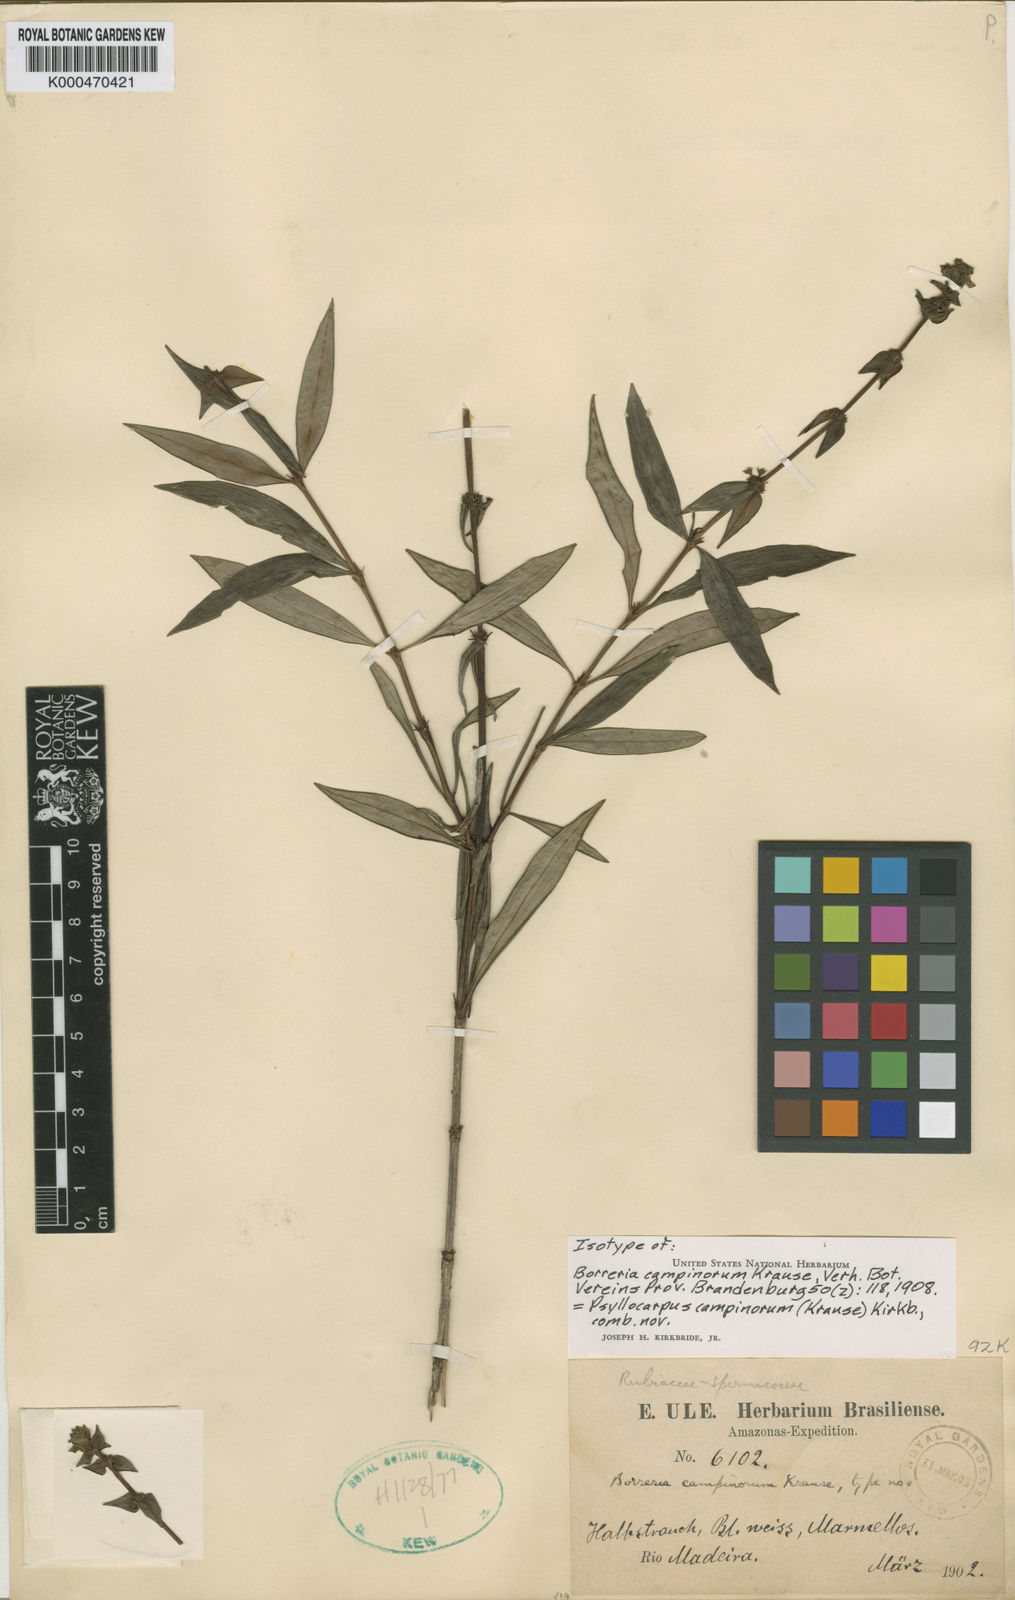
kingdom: Plantae
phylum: Tracheophyta
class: Magnoliopsida
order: Gentianales
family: Rubiaceae
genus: Psyllocarpus
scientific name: Psyllocarpus campinorum
